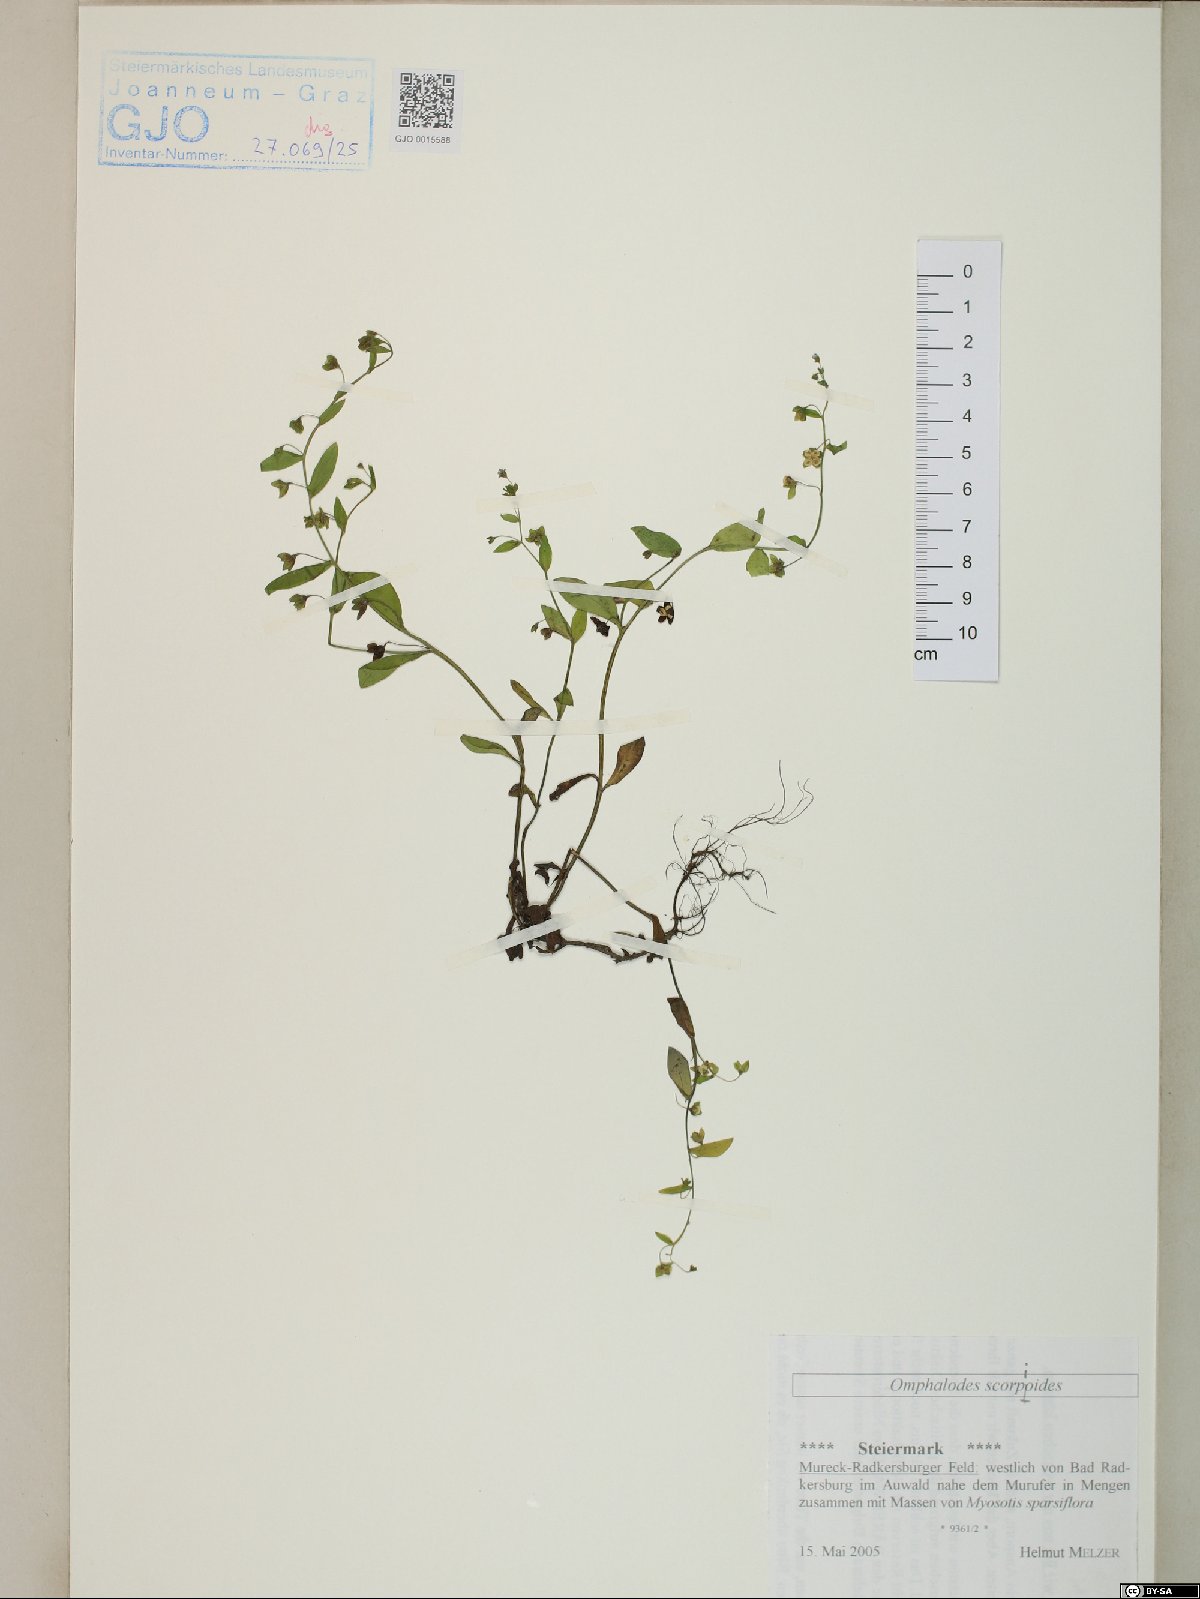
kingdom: Plantae
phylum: Tracheophyta
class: Magnoliopsida
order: Boraginales
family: Boraginaceae
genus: Memoremea
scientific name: Memoremea scorpioides
